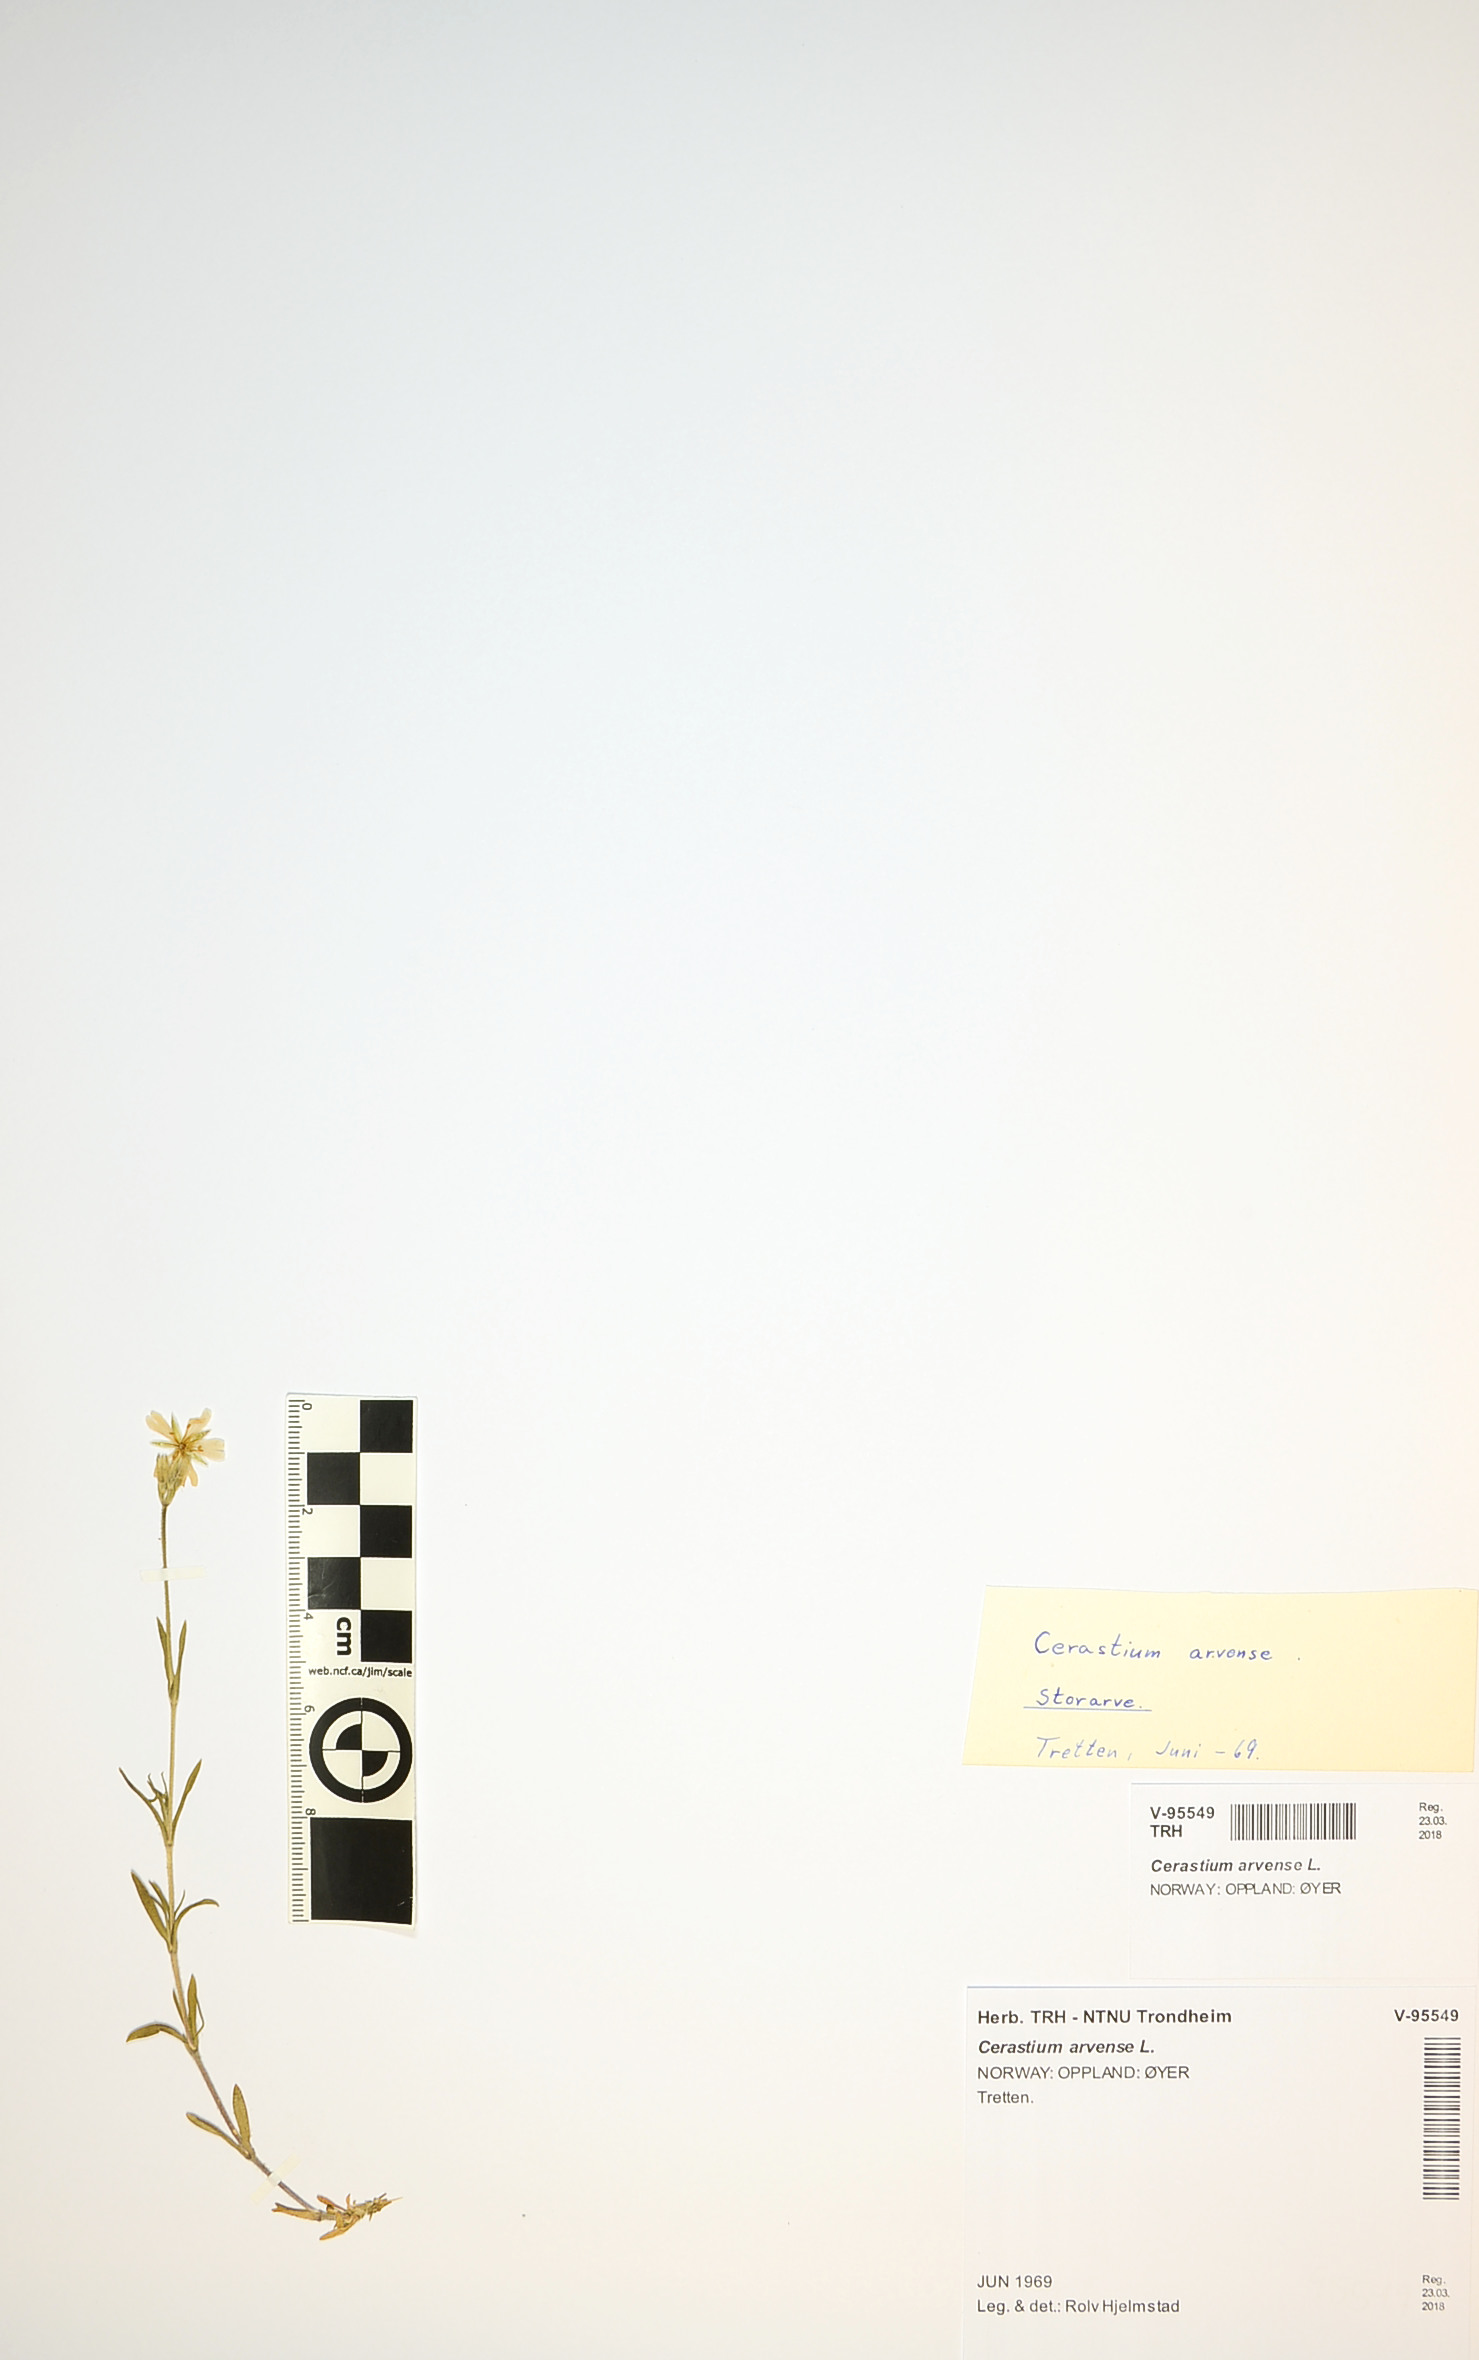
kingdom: Plantae
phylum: Tracheophyta
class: Magnoliopsida
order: Caryophyllales
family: Caryophyllaceae
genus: Cerastium
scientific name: Cerastium arvense
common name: Field mouse-ear
